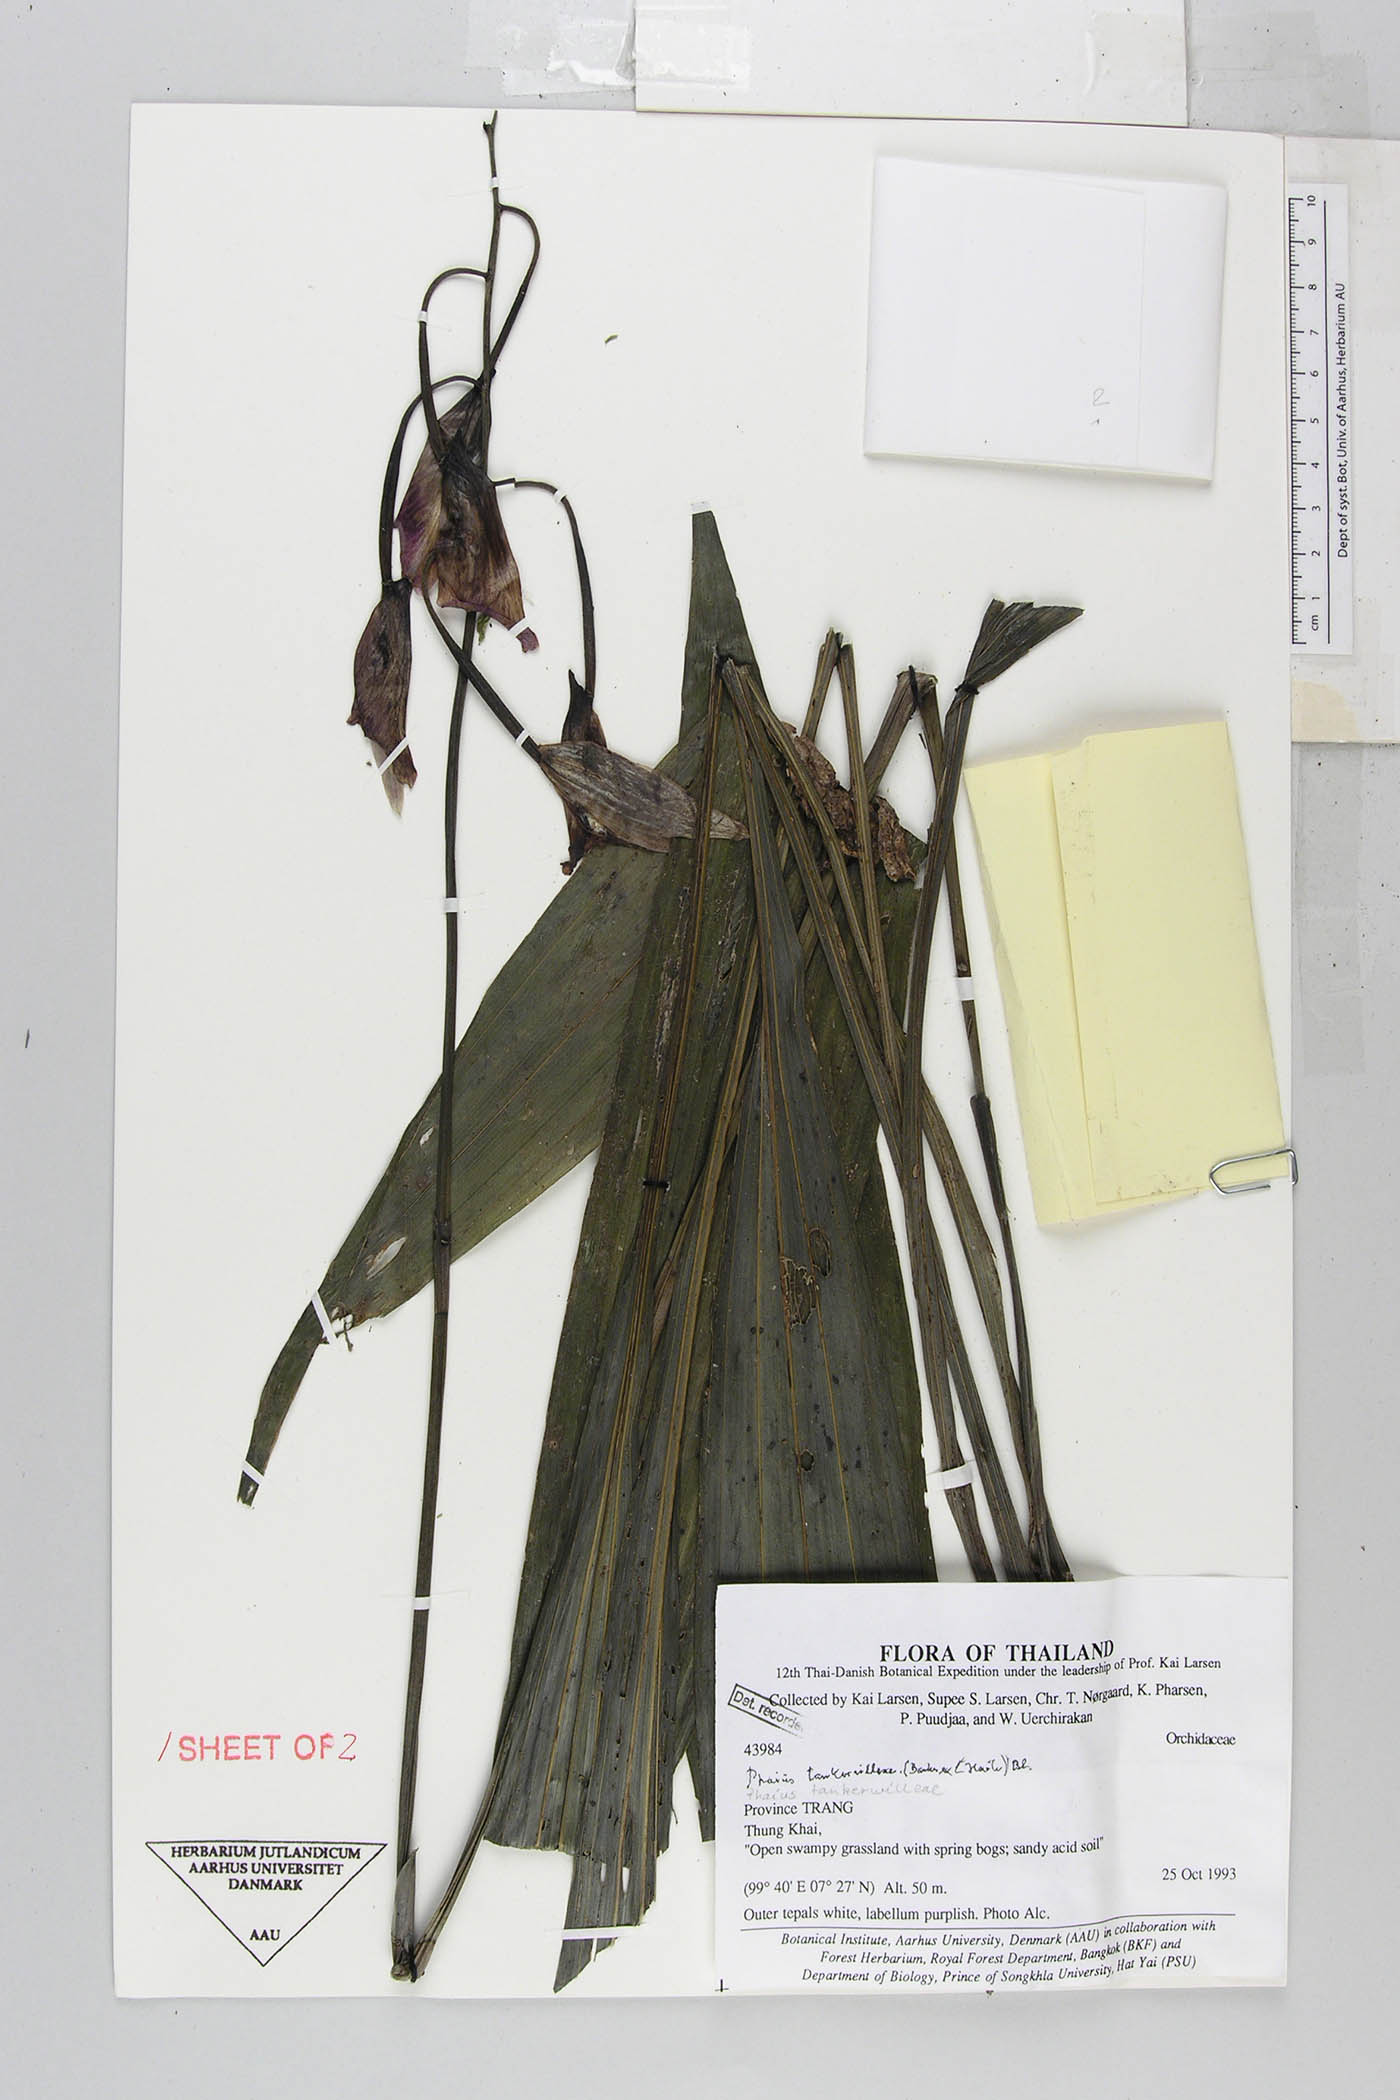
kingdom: Plantae
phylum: Tracheophyta
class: Liliopsida
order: Asparagales
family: Orchidaceae
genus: Calanthe
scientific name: Calanthe tankervilleae
